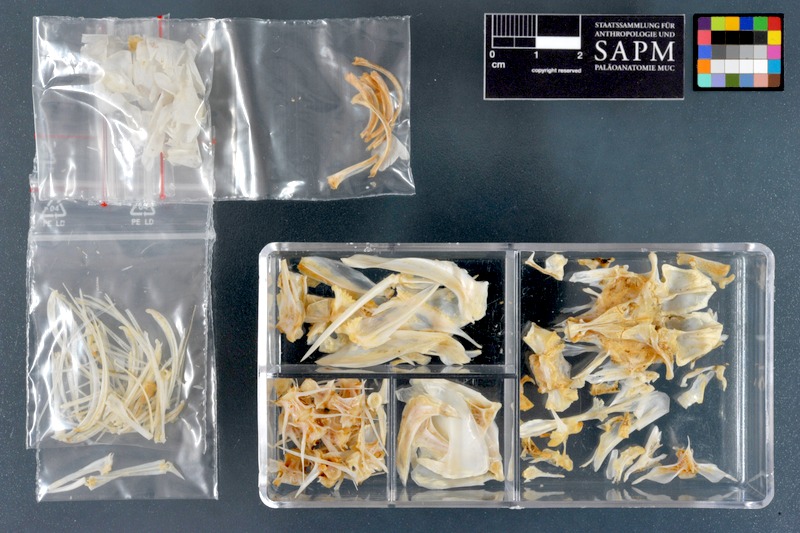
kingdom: Animalia
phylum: Chordata
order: Mugiliformes
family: Mugilidae
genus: Planiliza
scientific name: Planiliza subviridis
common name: Greenback mullet
